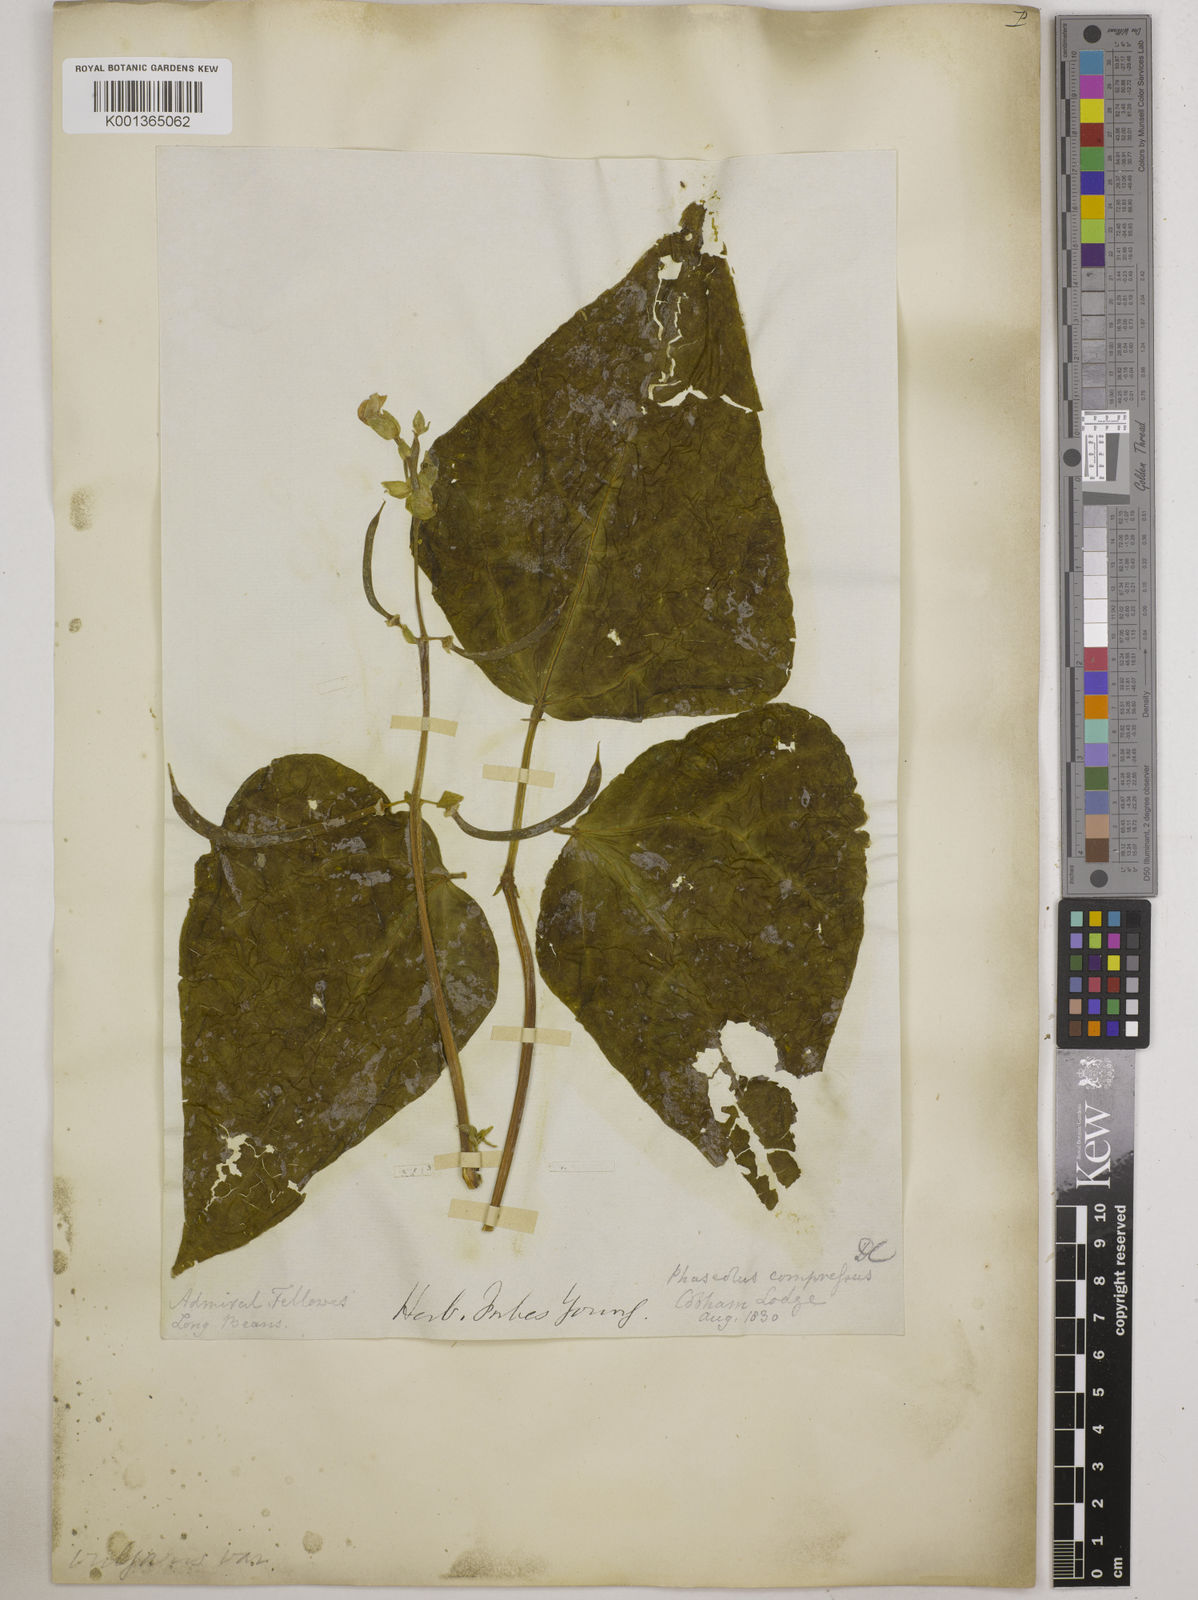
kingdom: Plantae
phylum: Tracheophyta
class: Magnoliopsida
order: Fabales
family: Fabaceae
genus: Phaseolus
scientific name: Phaseolus vulgaris
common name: Bean
